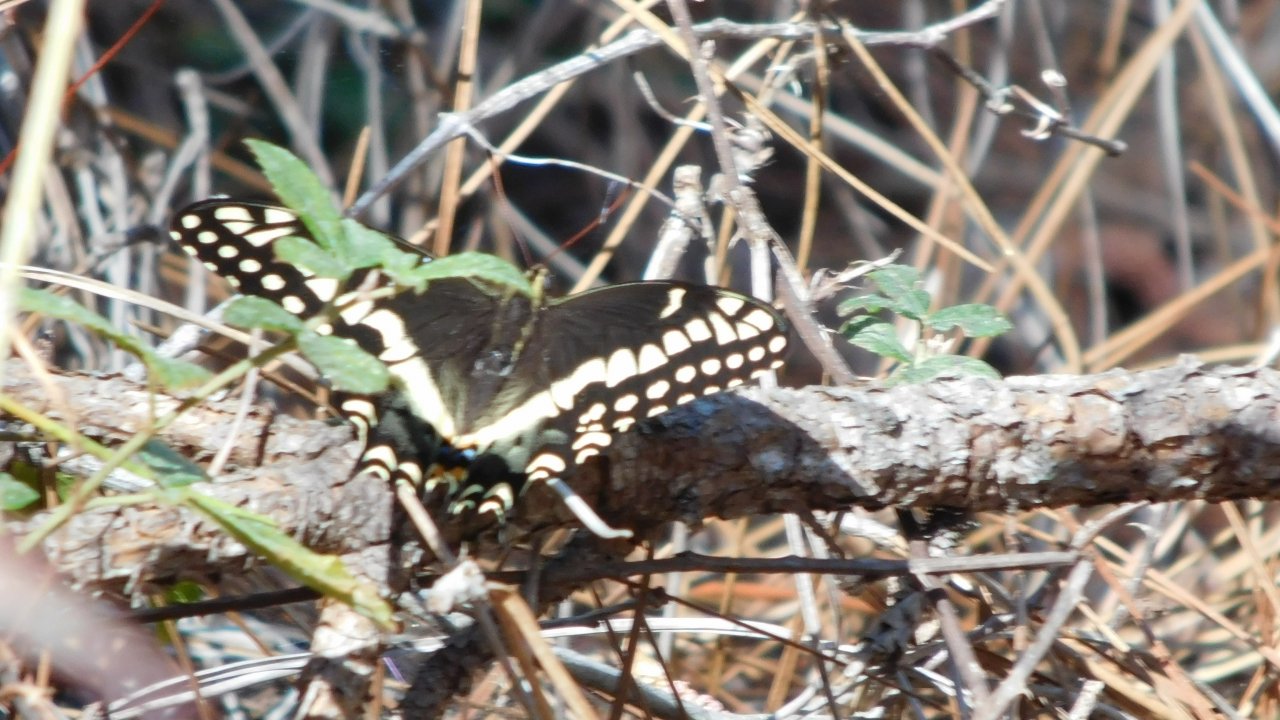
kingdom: Animalia
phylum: Arthropoda
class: Insecta
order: Lepidoptera
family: Papilionidae
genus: Pterourus
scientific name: Pterourus palamedes
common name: Palamedes Swallowtail
